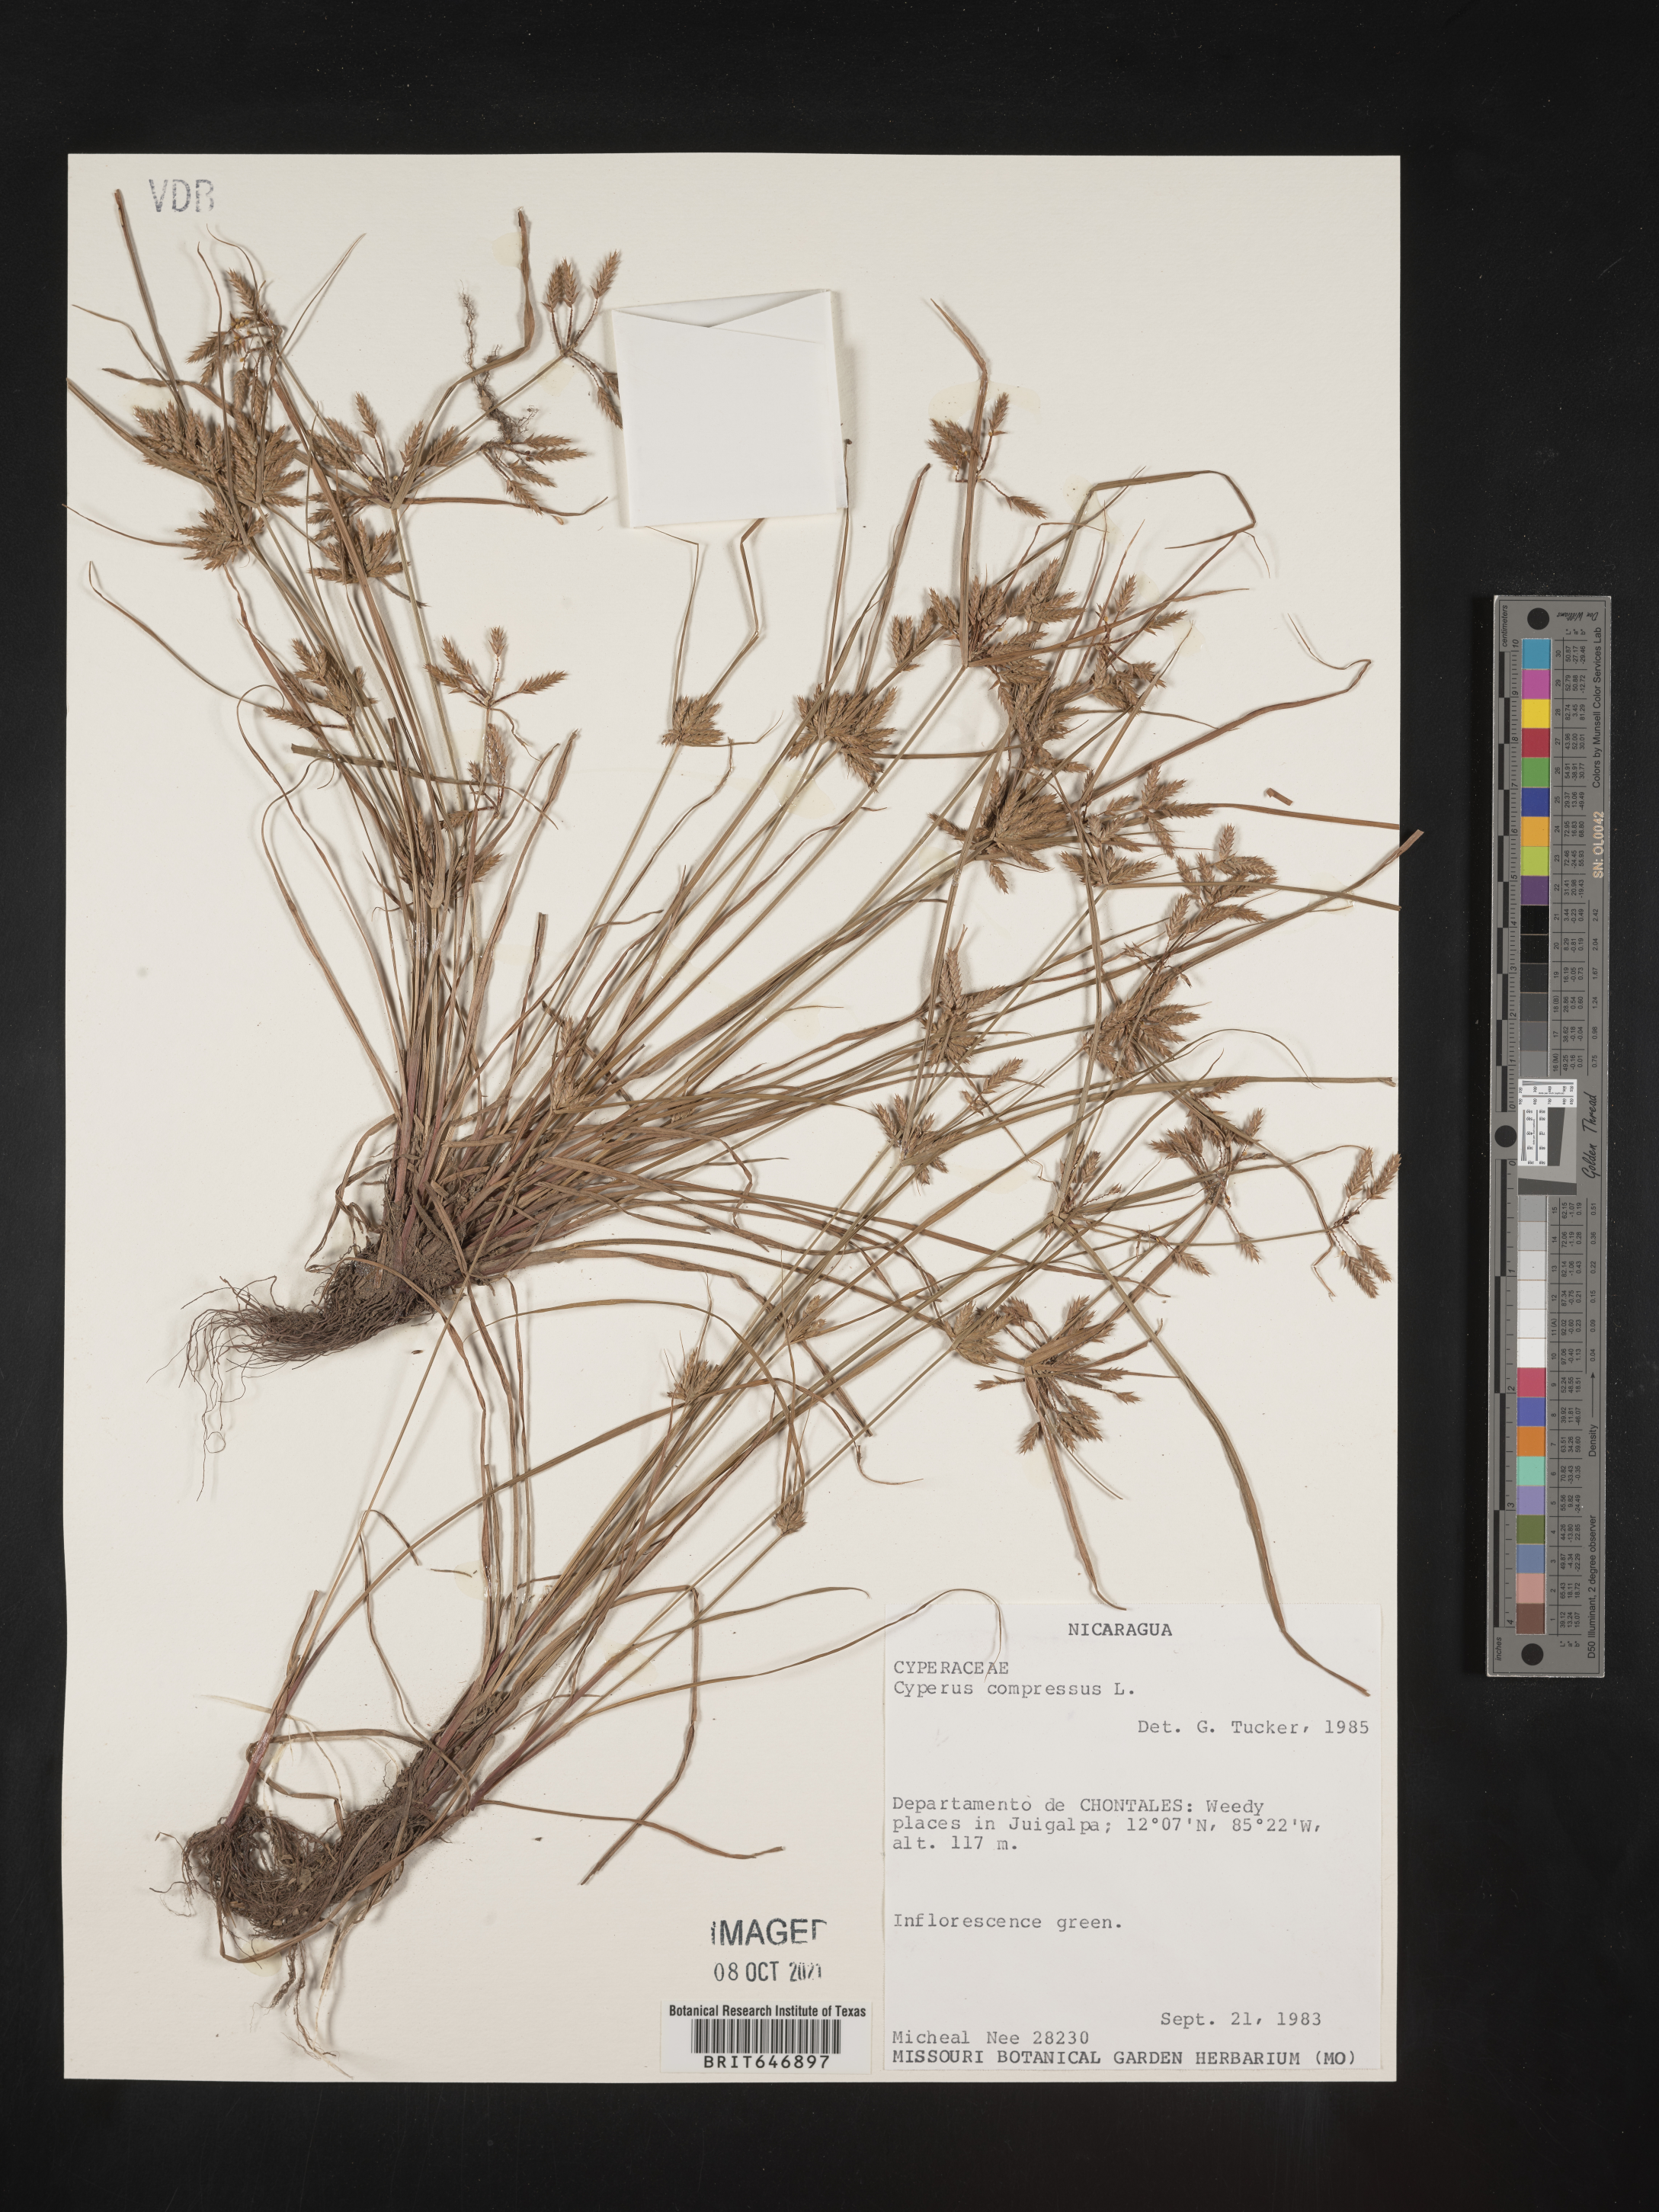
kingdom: Plantae
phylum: Tracheophyta
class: Liliopsida
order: Poales
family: Cyperaceae
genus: Cyperus
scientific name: Cyperus compressus
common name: Poorland flatsedge
